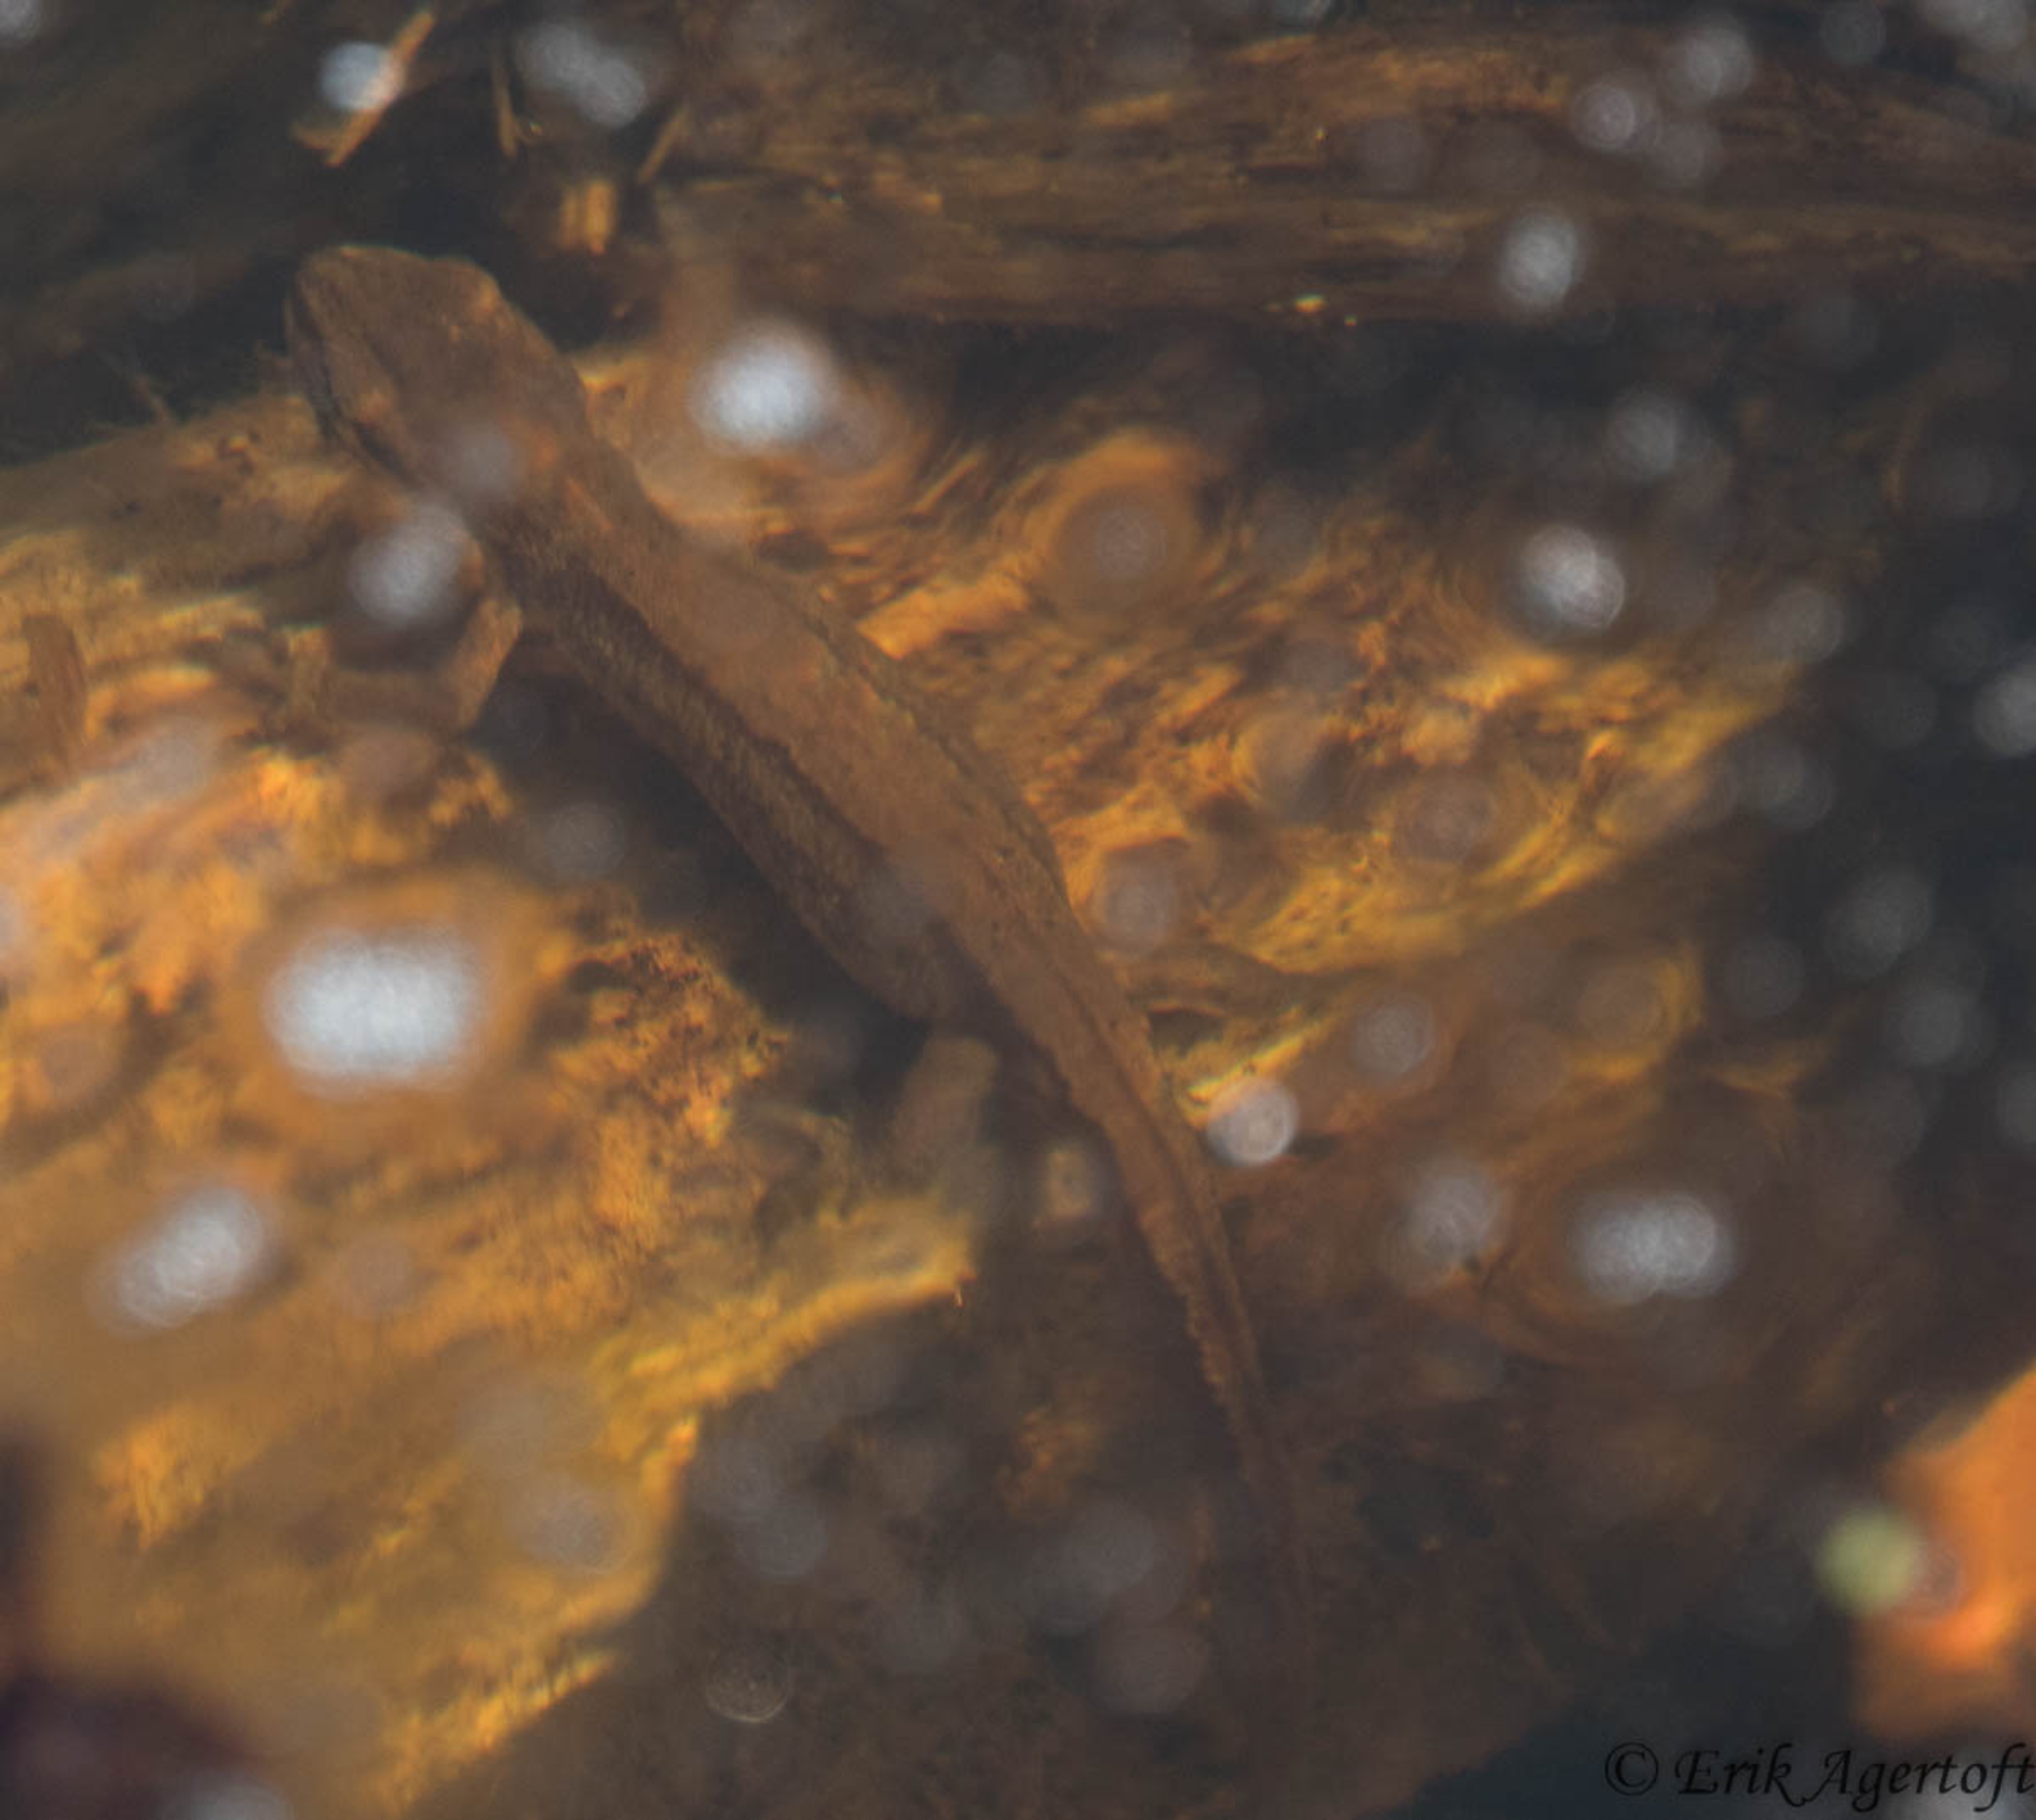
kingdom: Animalia
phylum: Chordata
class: Amphibia
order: Caudata
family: Salamandridae
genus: Lissotriton
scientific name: Lissotriton vulgaris
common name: Lille vandsalamander
